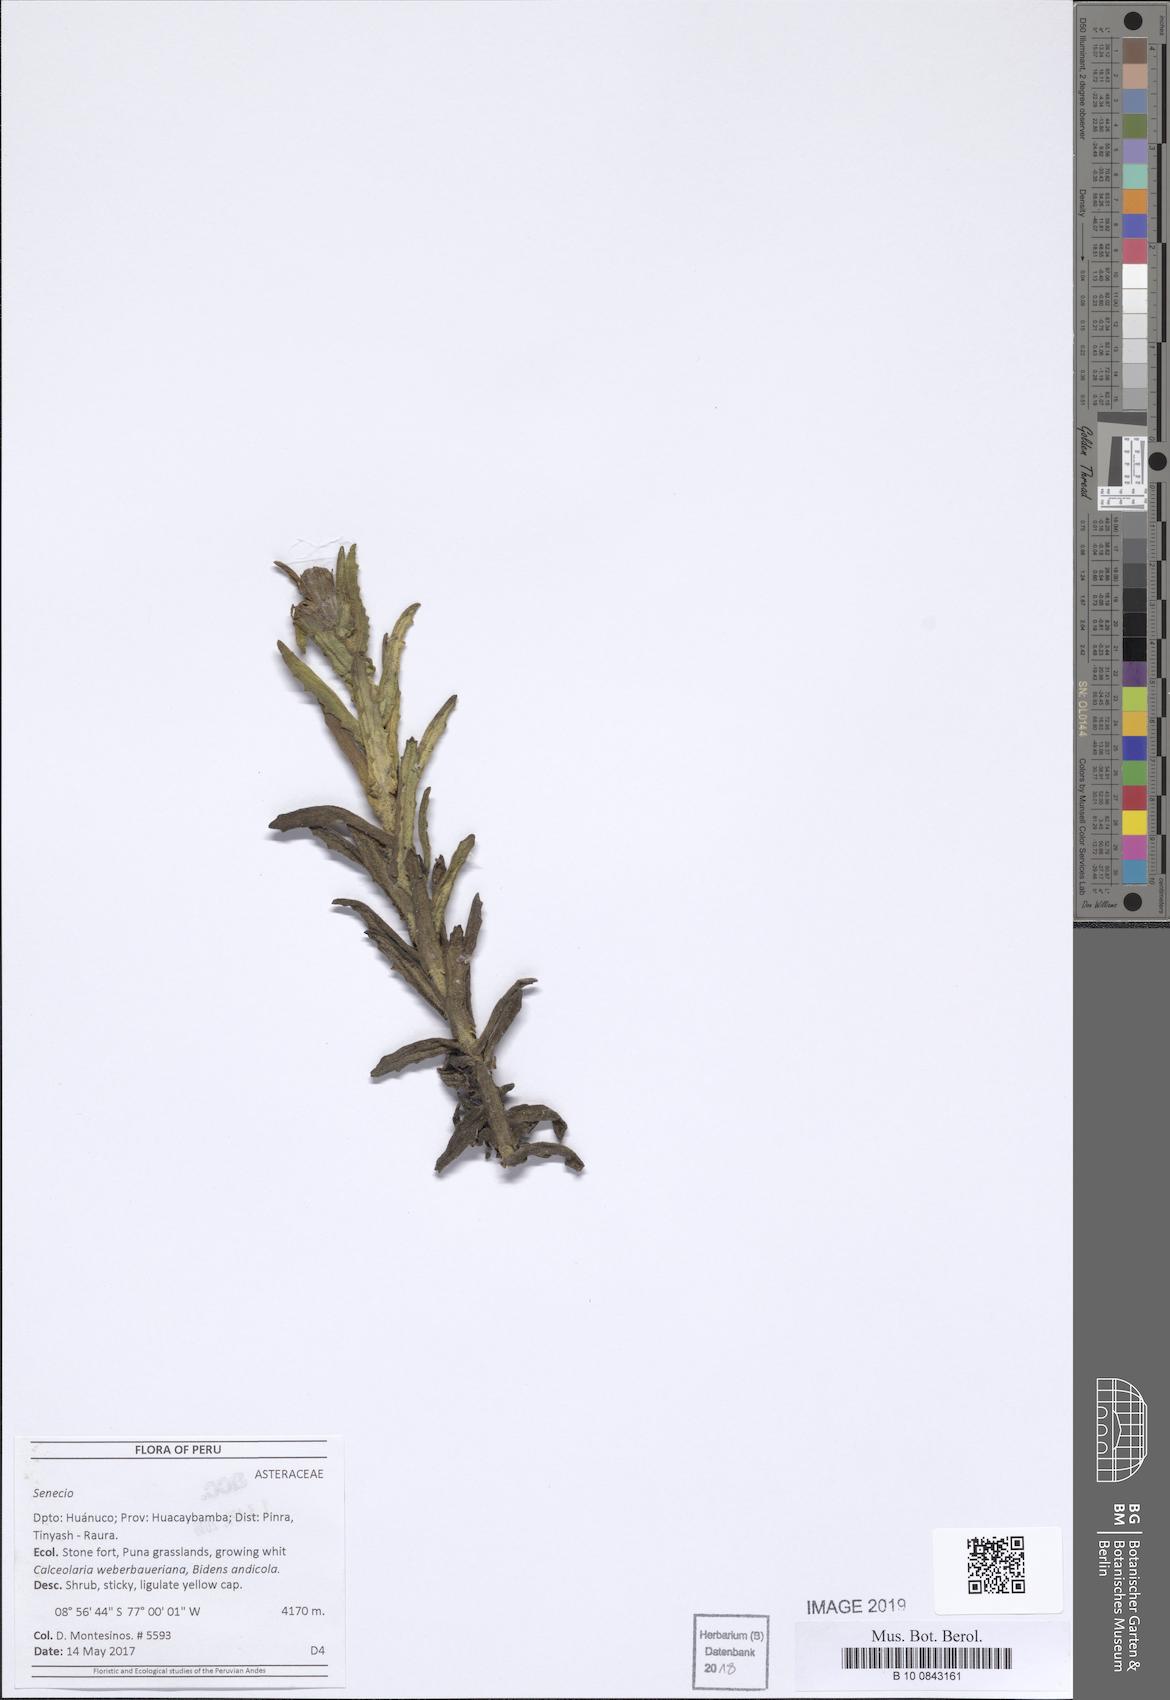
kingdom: Plantae
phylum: Tracheophyta
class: Magnoliopsida
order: Asterales
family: Asteraceae
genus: Senecio
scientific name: Senecio chavanilloensis
